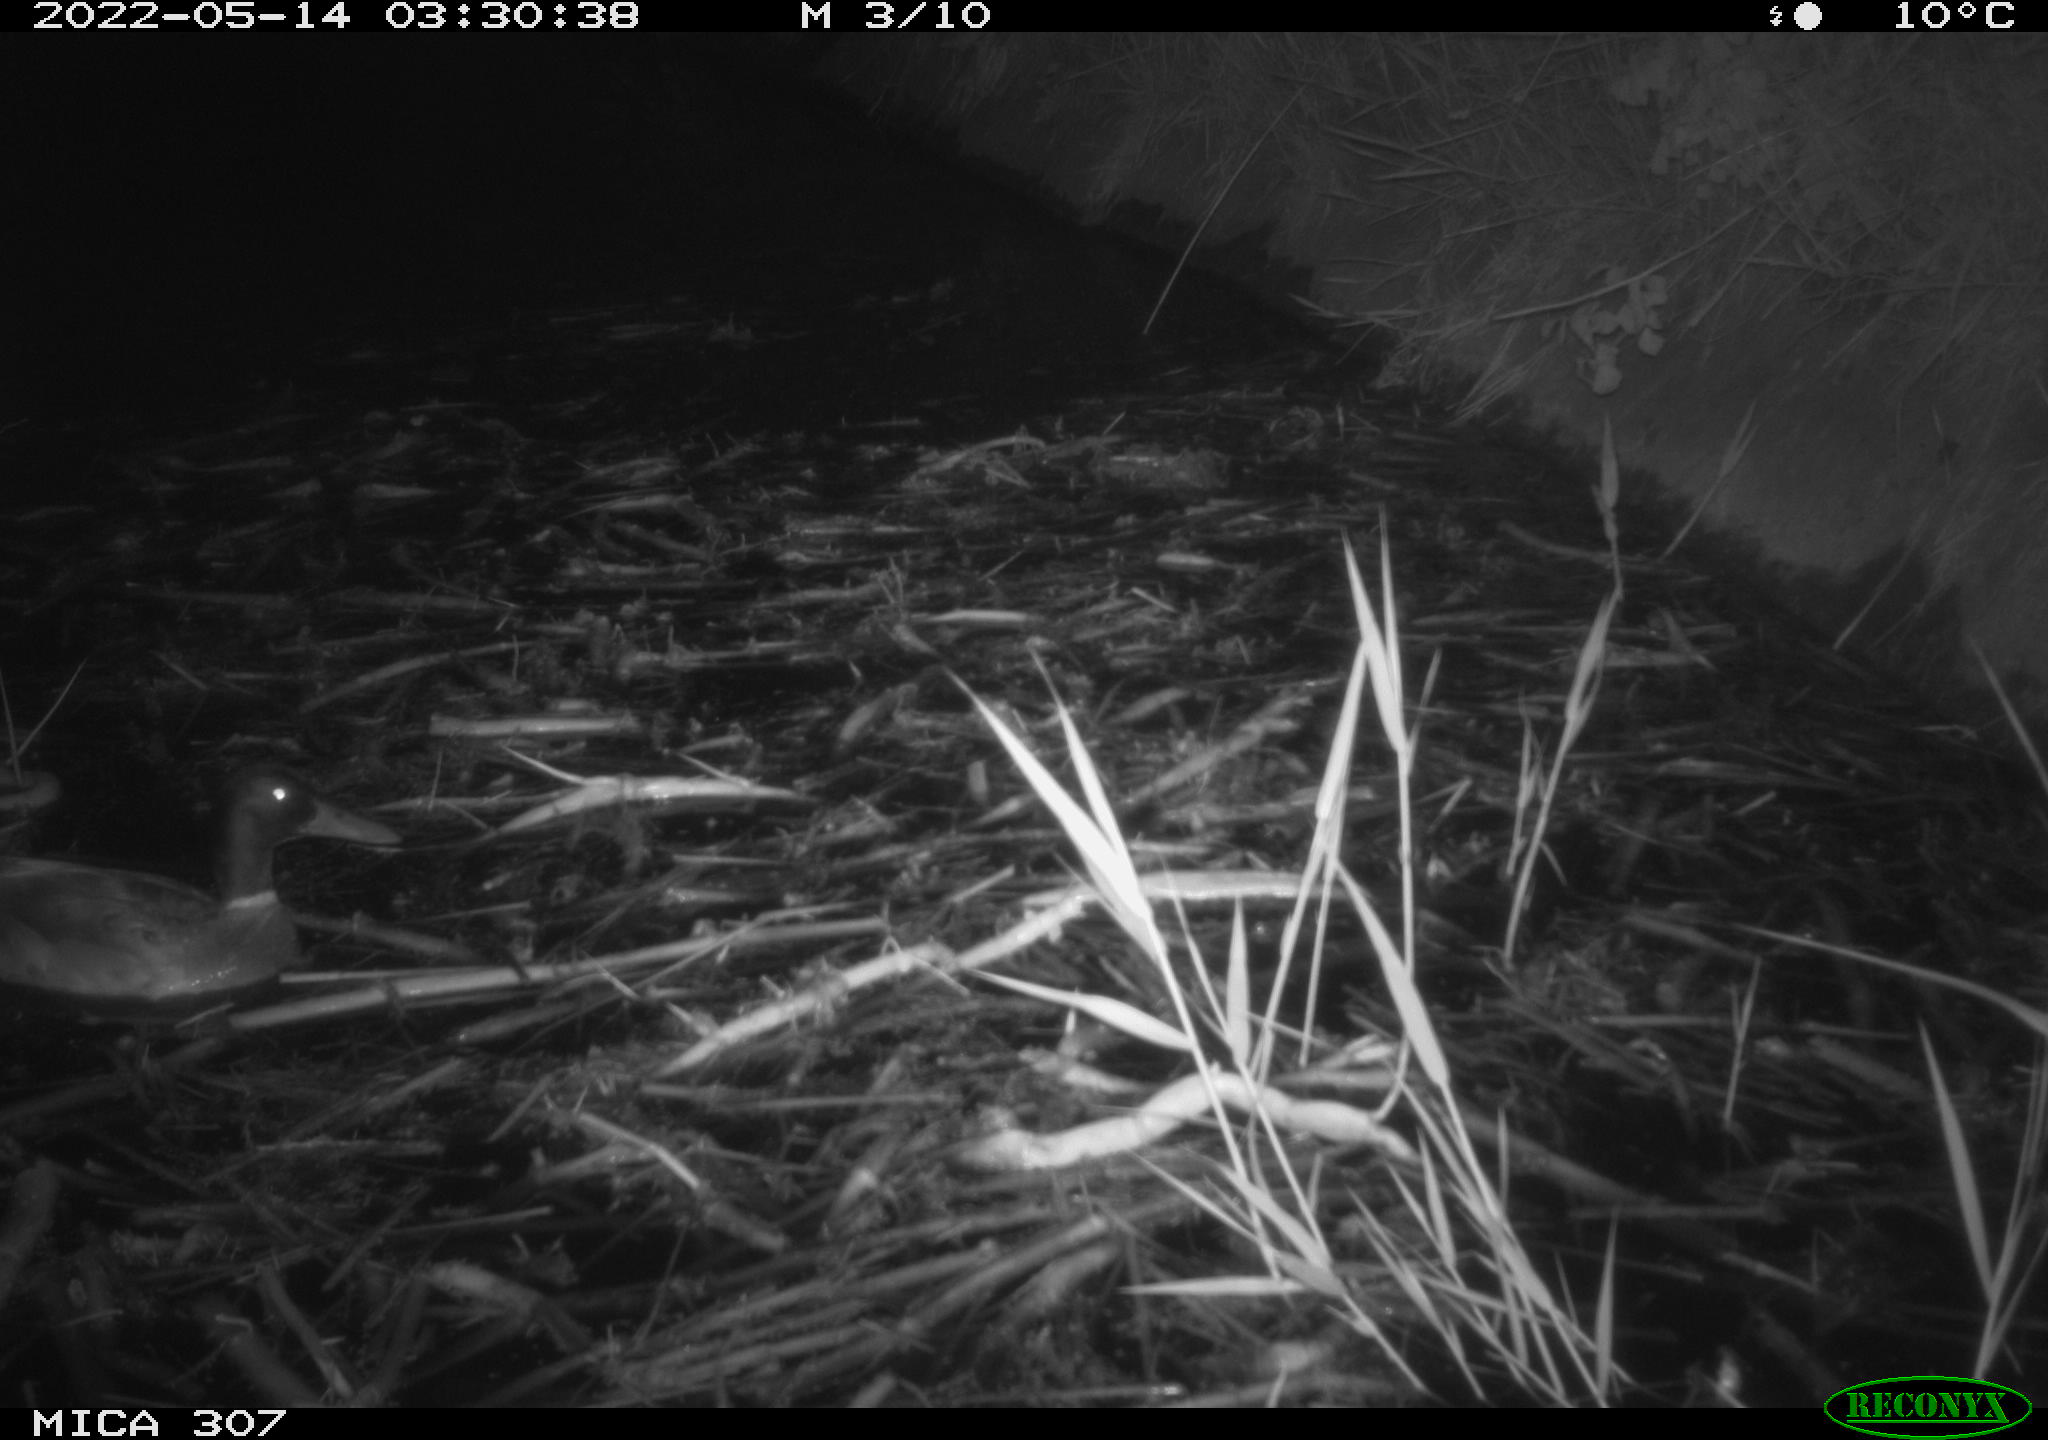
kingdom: Animalia
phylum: Chordata
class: Aves
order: Anseriformes
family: Anatidae
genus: Anas
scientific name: Anas platyrhynchos
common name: Mallard
